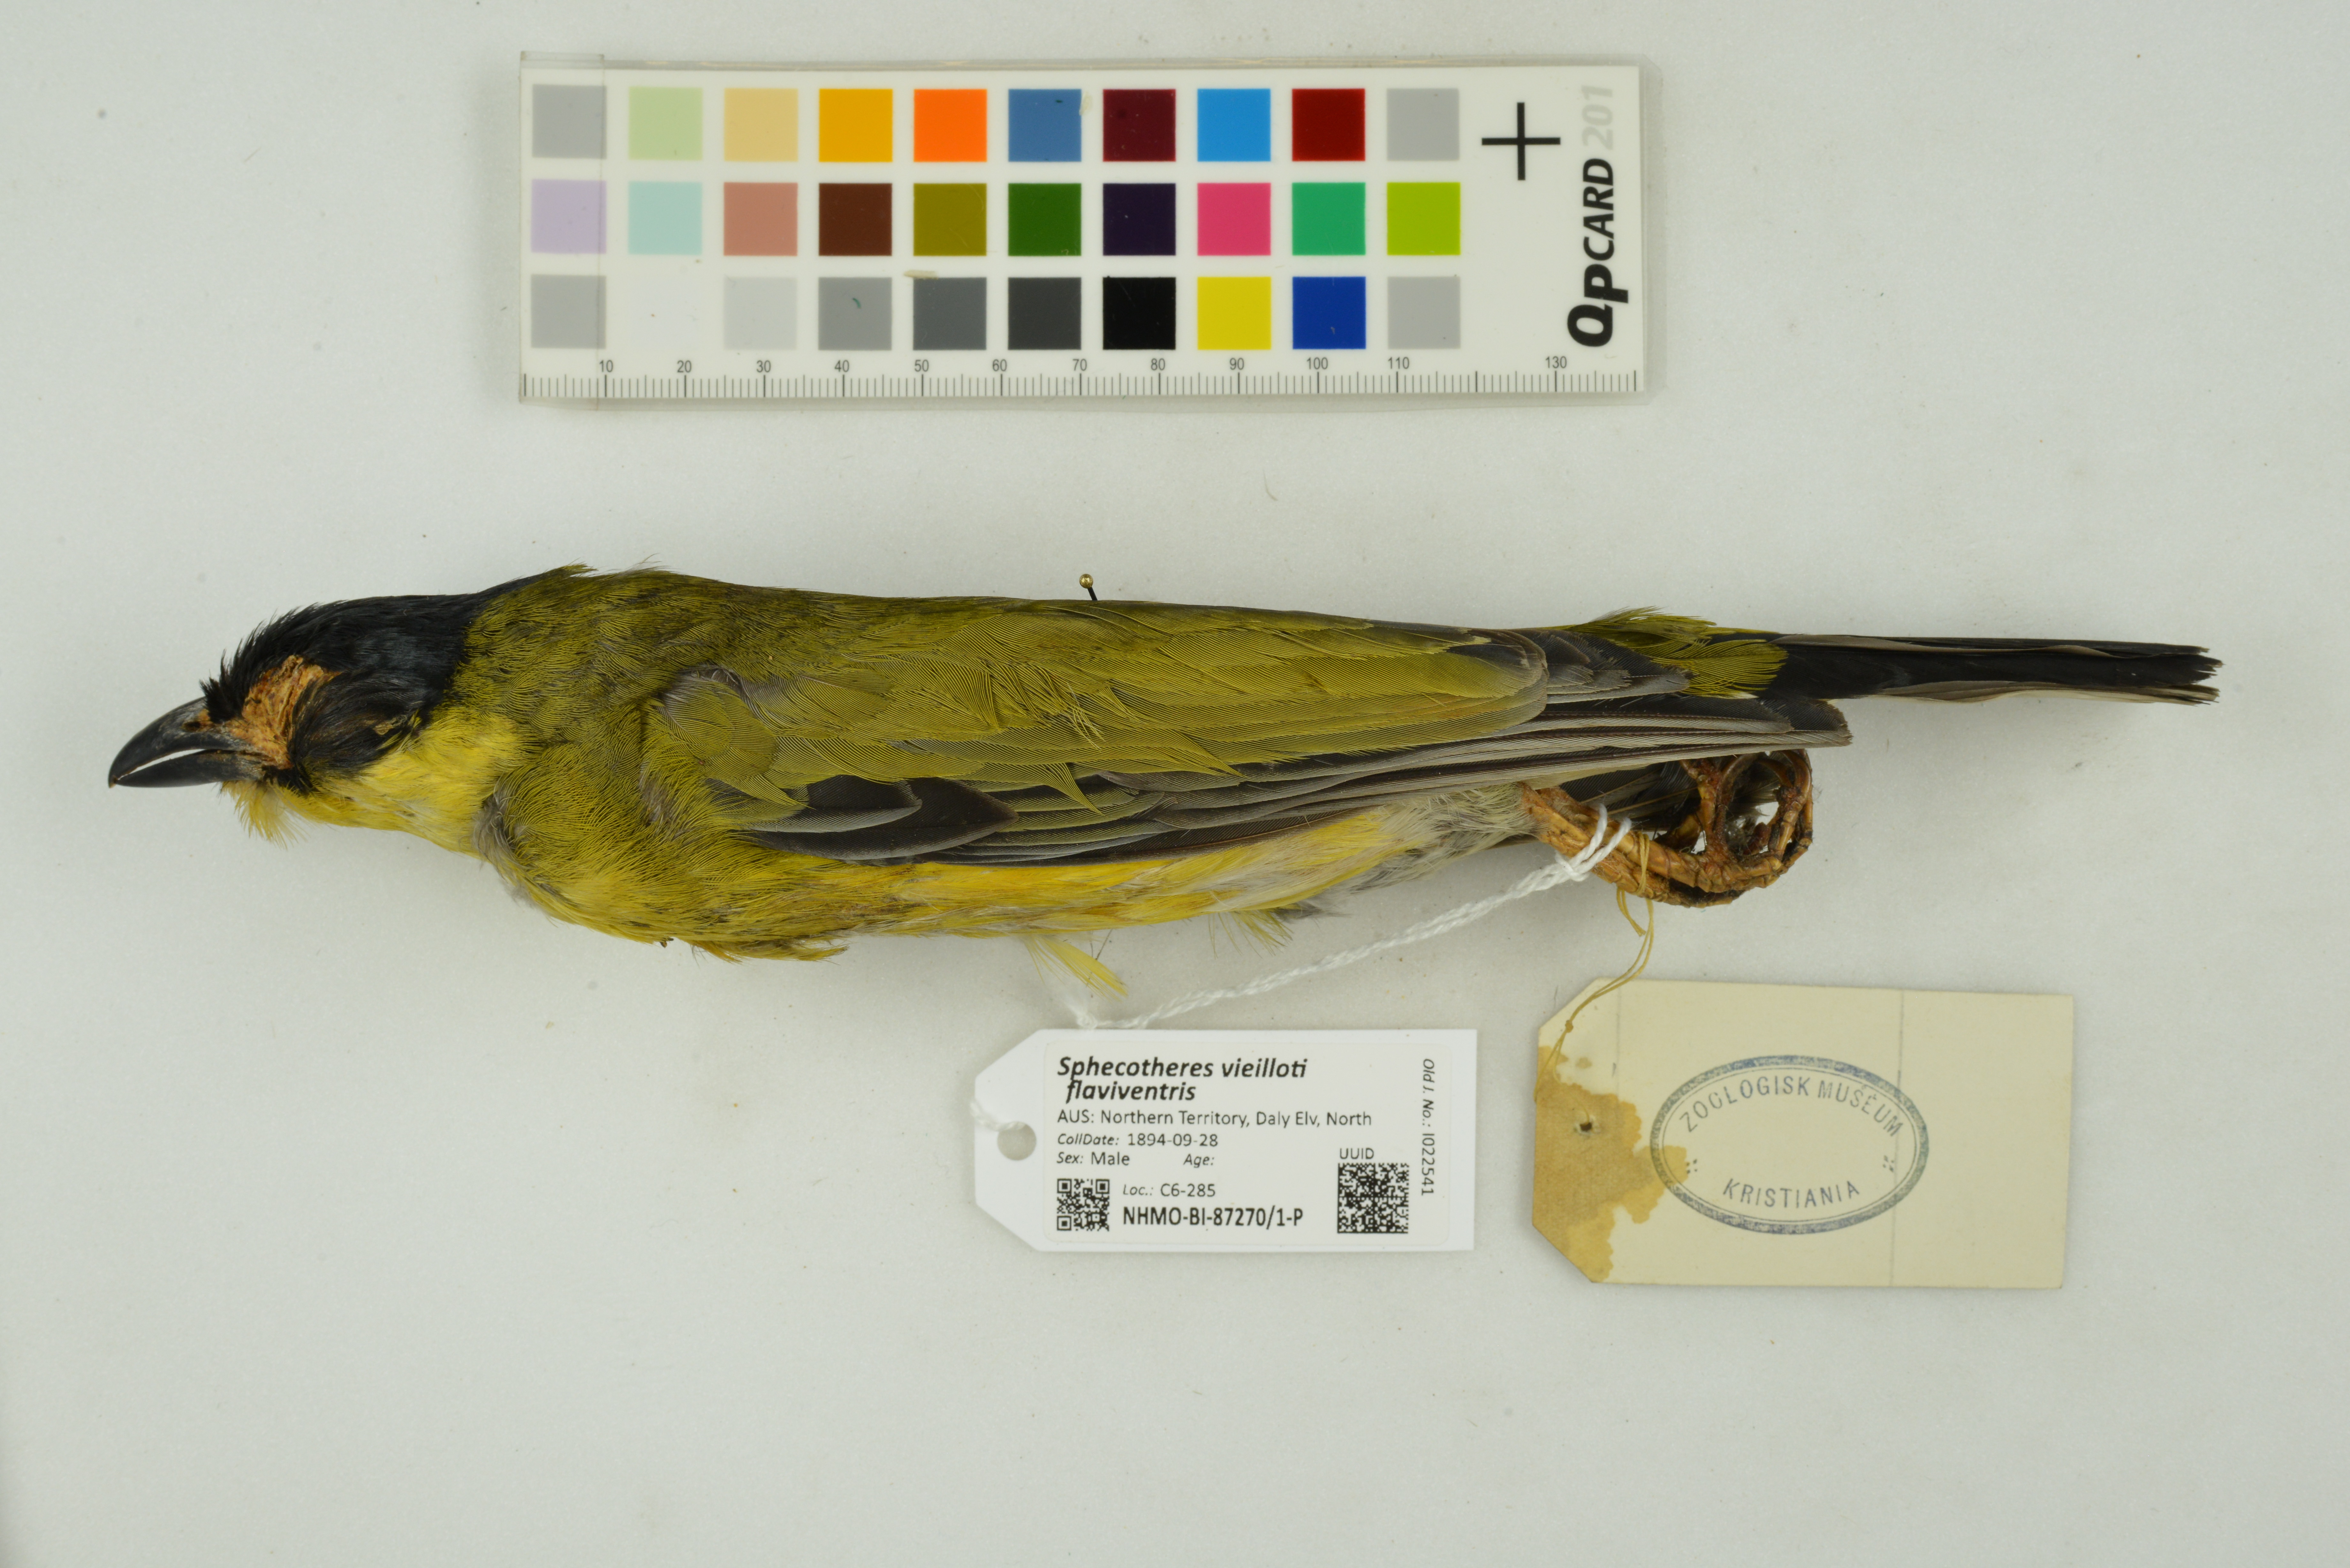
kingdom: Animalia
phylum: Chordata
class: Aves
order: Passeriformes
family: Oriolidae
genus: Sphecotheres
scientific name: Sphecotheres vieilloti
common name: Australasian figbird
